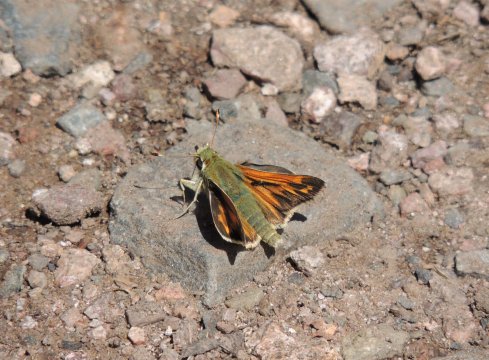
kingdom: Animalia
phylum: Arthropoda
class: Insecta
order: Lepidoptera
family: Hesperiidae
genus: Hesperia
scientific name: Hesperia juba
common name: Juba Skipper
